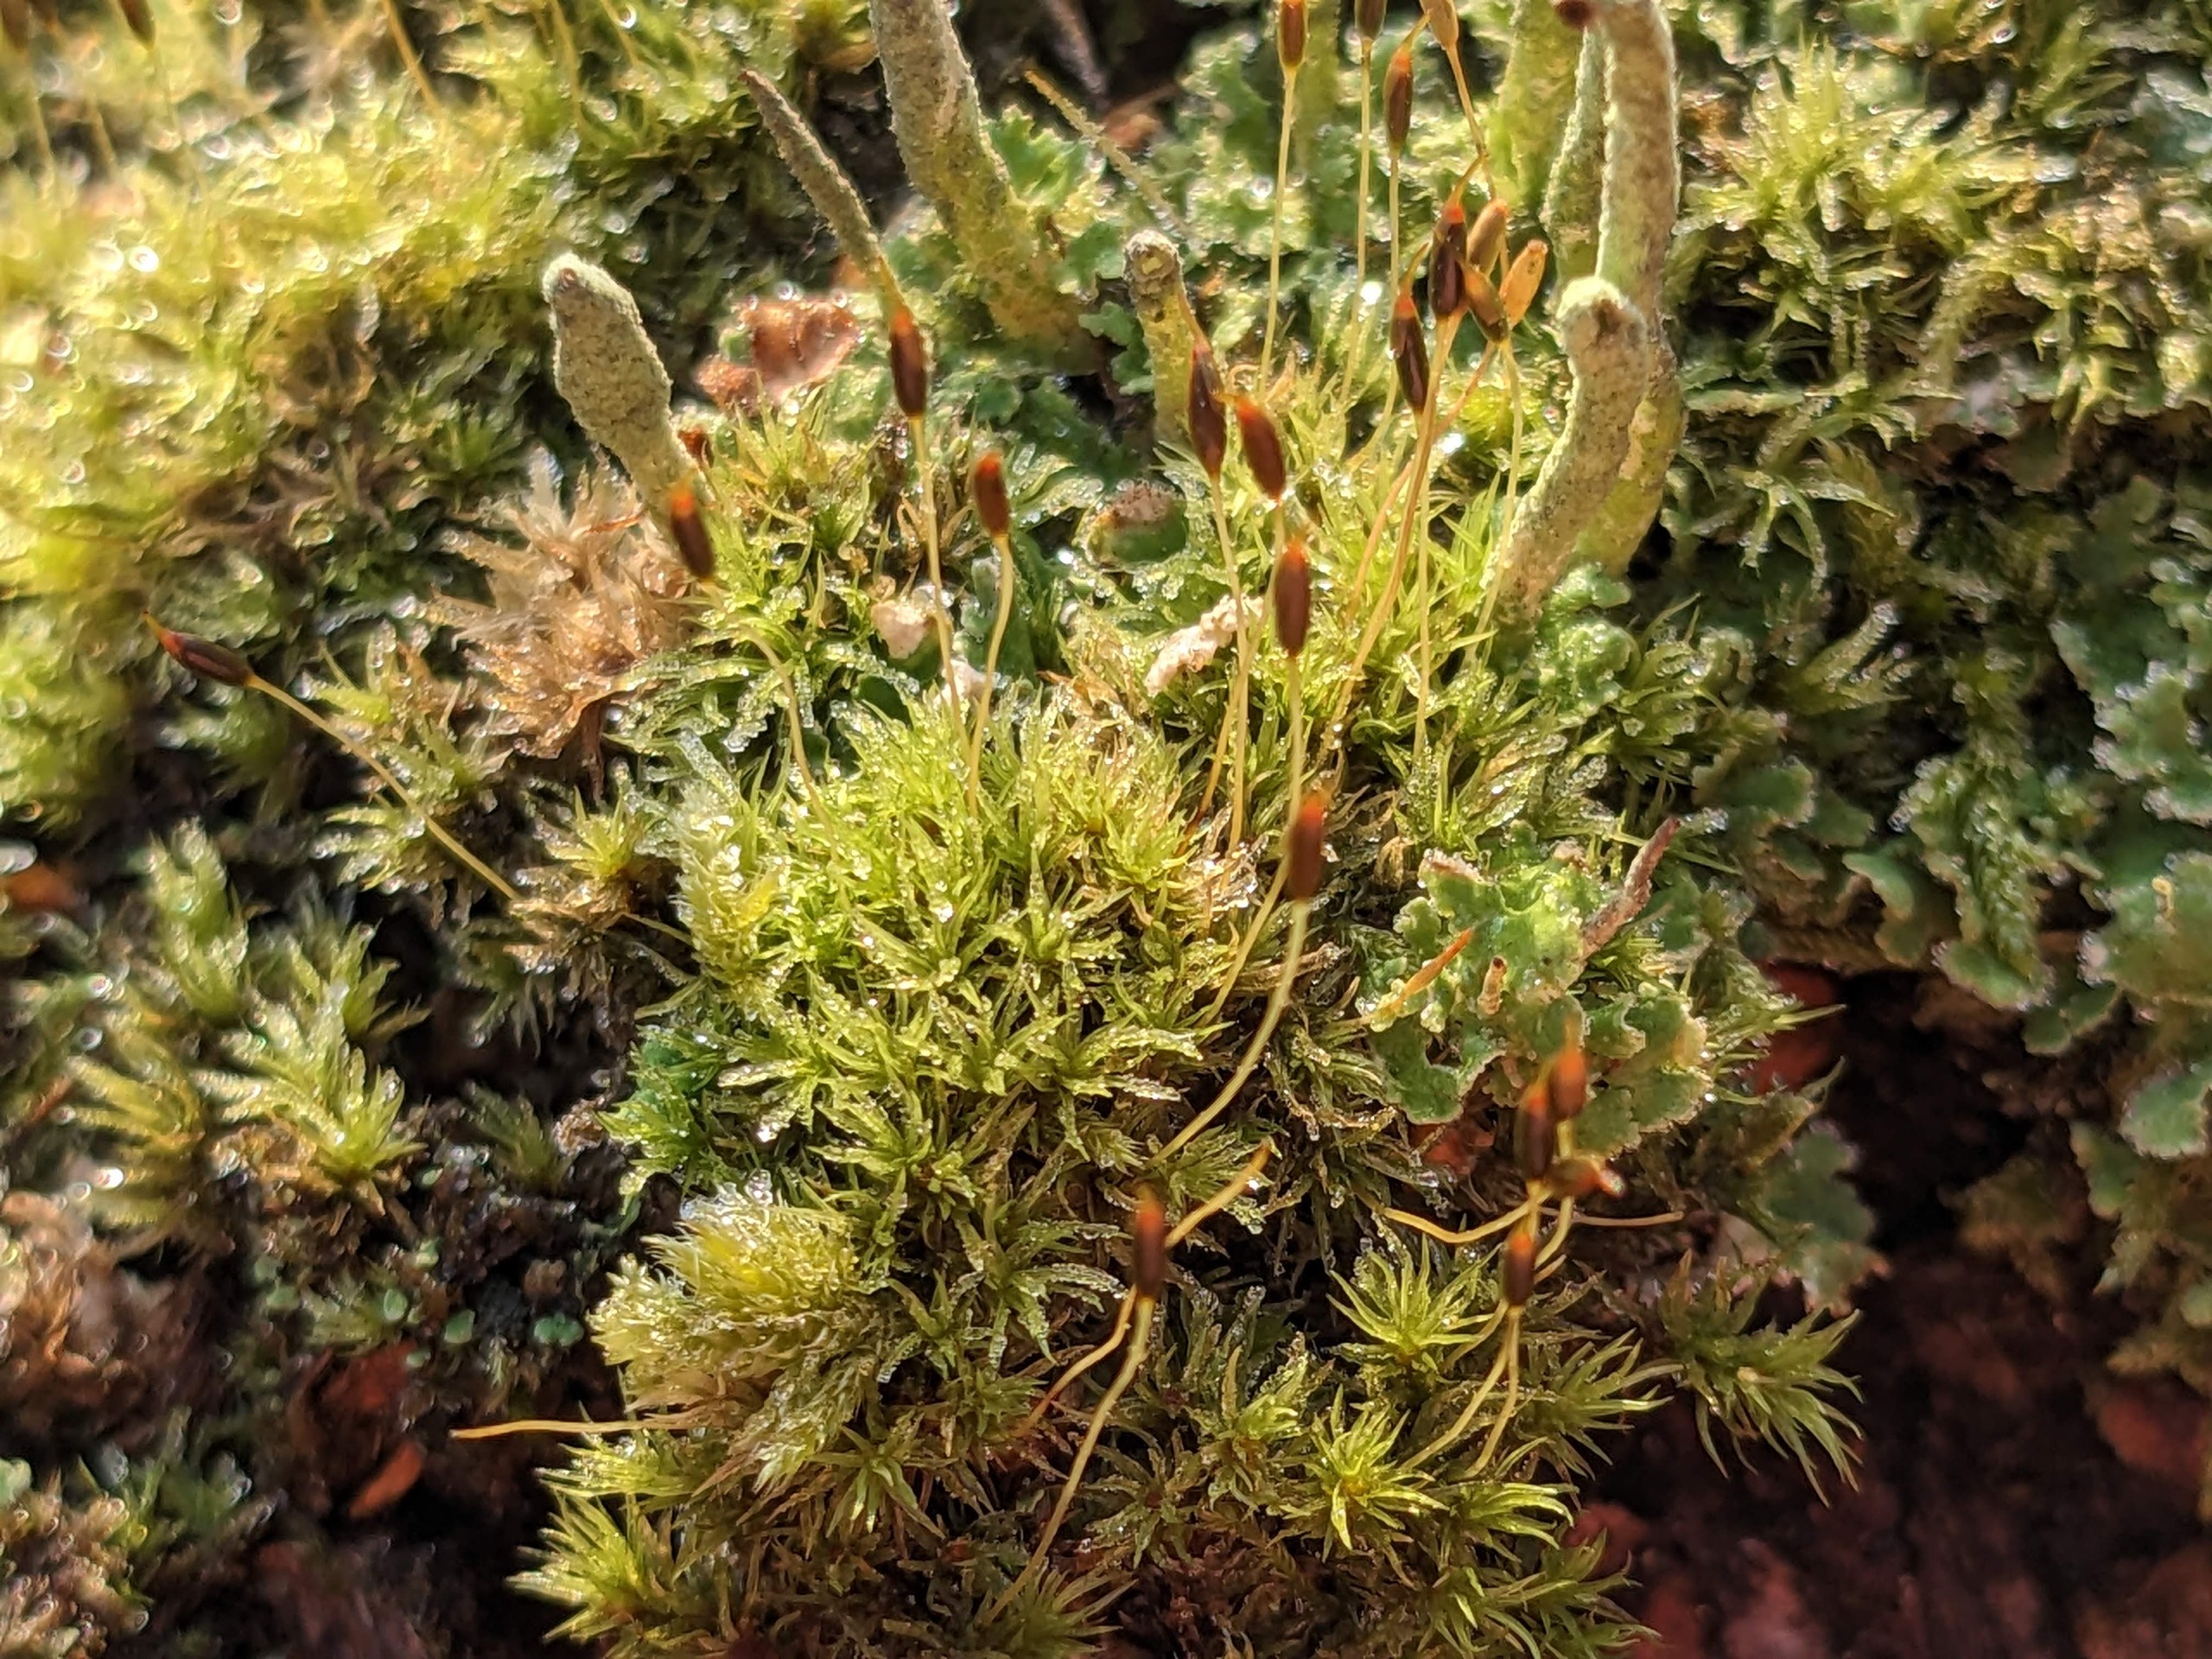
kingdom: Plantae
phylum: Bryophyta
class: Bryopsida
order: Dicranales
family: Rhabdoweisiaceae
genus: Dicranoweisia
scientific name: Dicranoweisia cirrata
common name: Almindelig krøltuemos
